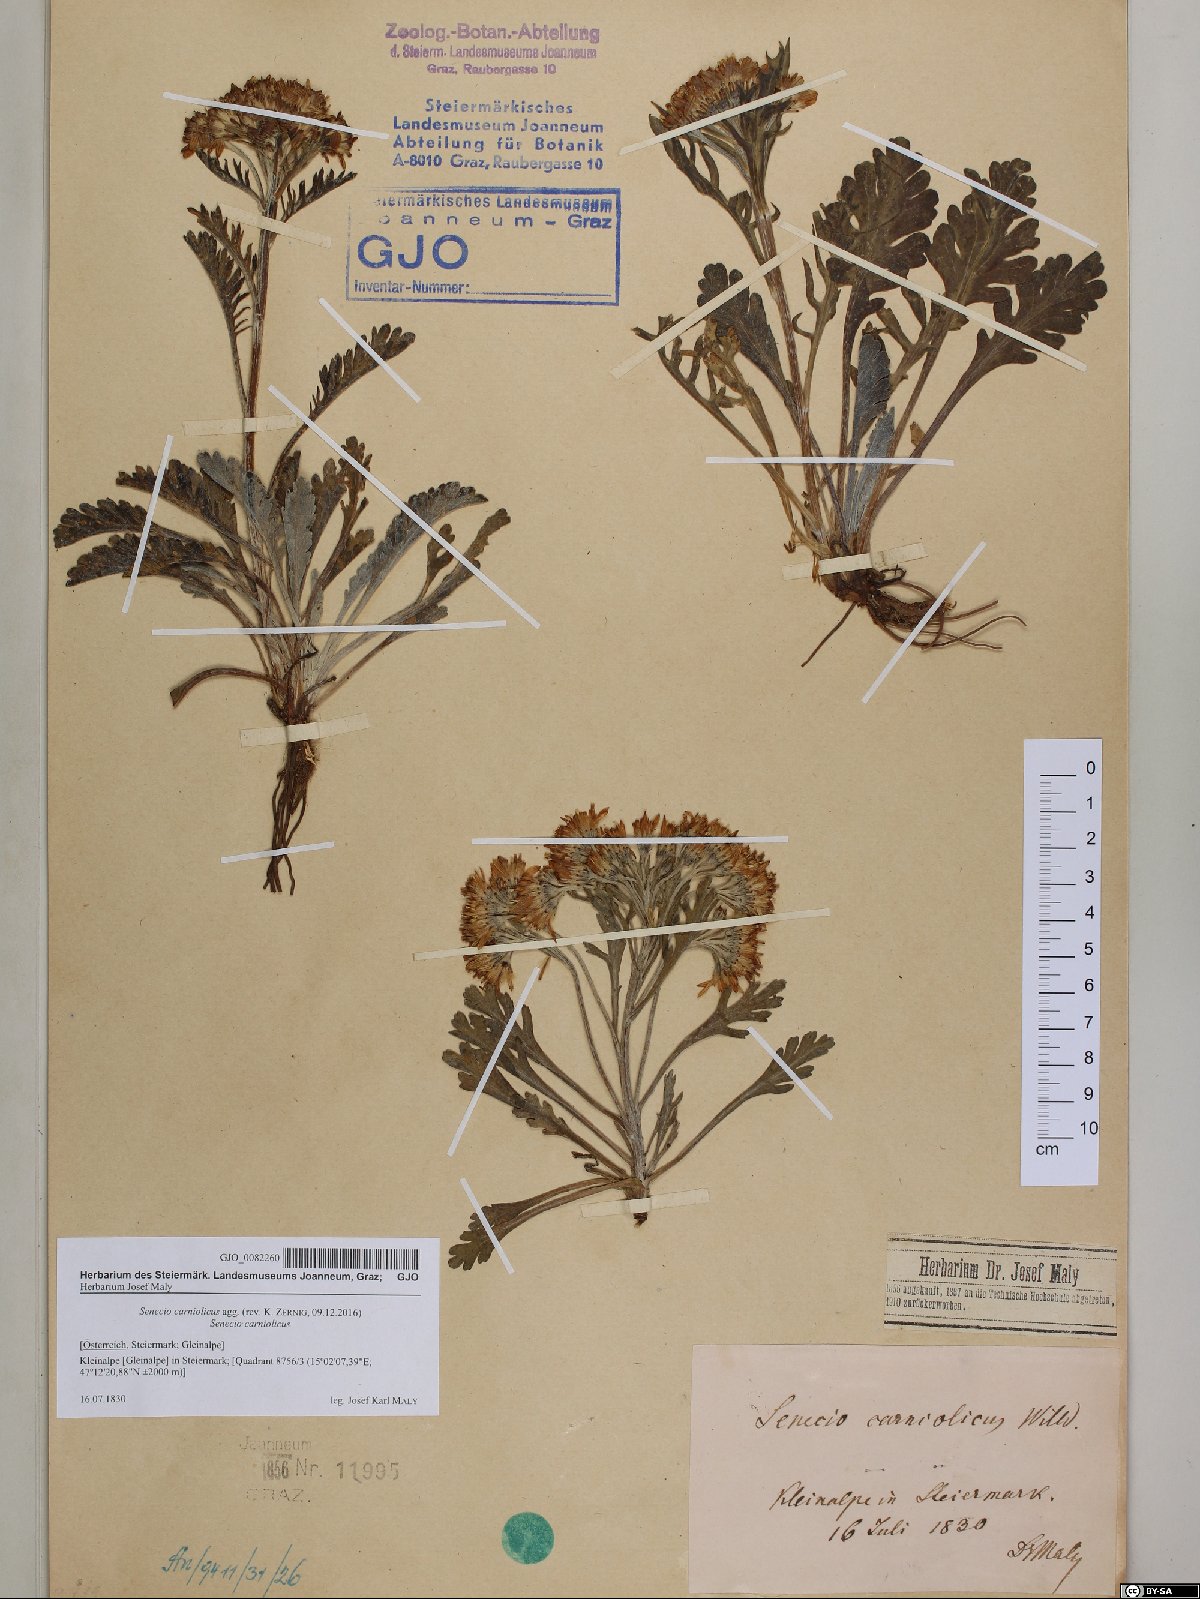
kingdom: Plantae
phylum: Tracheophyta
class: Magnoliopsida
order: Asterales
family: Asteraceae
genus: Jacobaea
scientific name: Jacobaea carniolica
